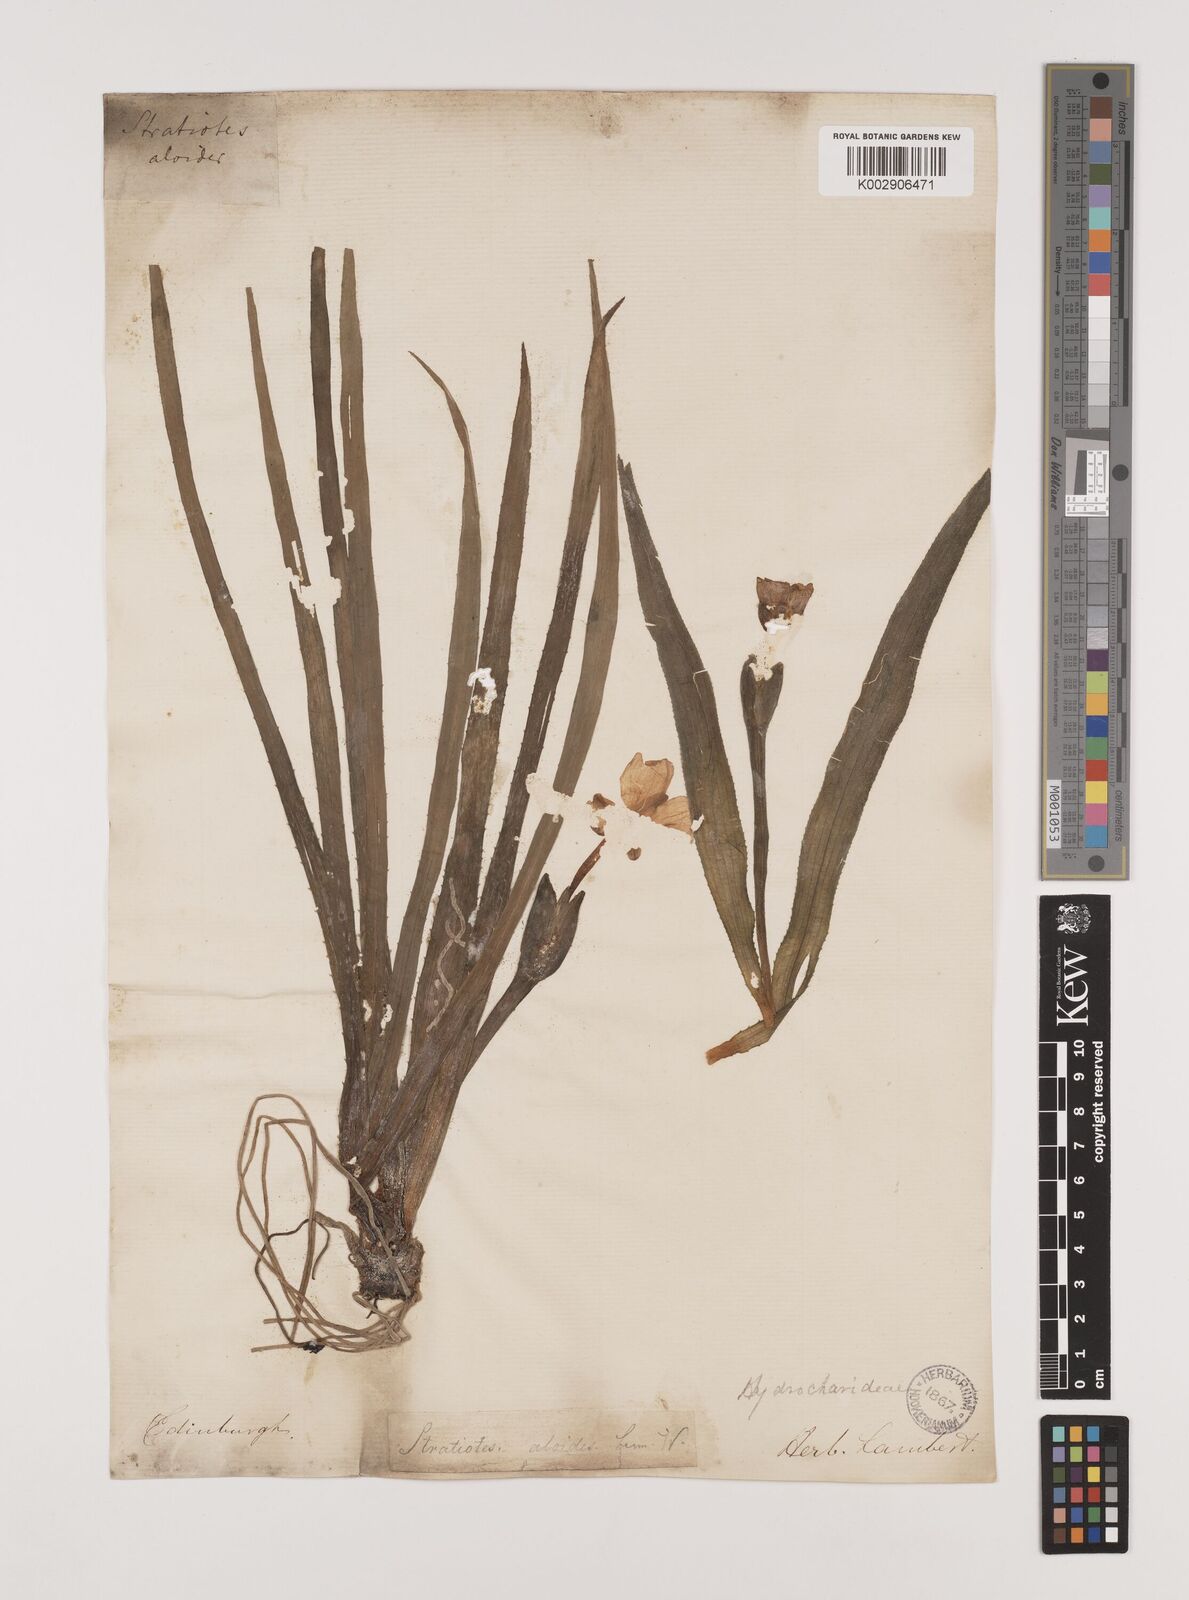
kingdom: Plantae
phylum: Tracheophyta
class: Liliopsida
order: Alismatales
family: Hydrocharitaceae
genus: Stratiotes
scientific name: Stratiotes aloides
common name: Water-soldier
